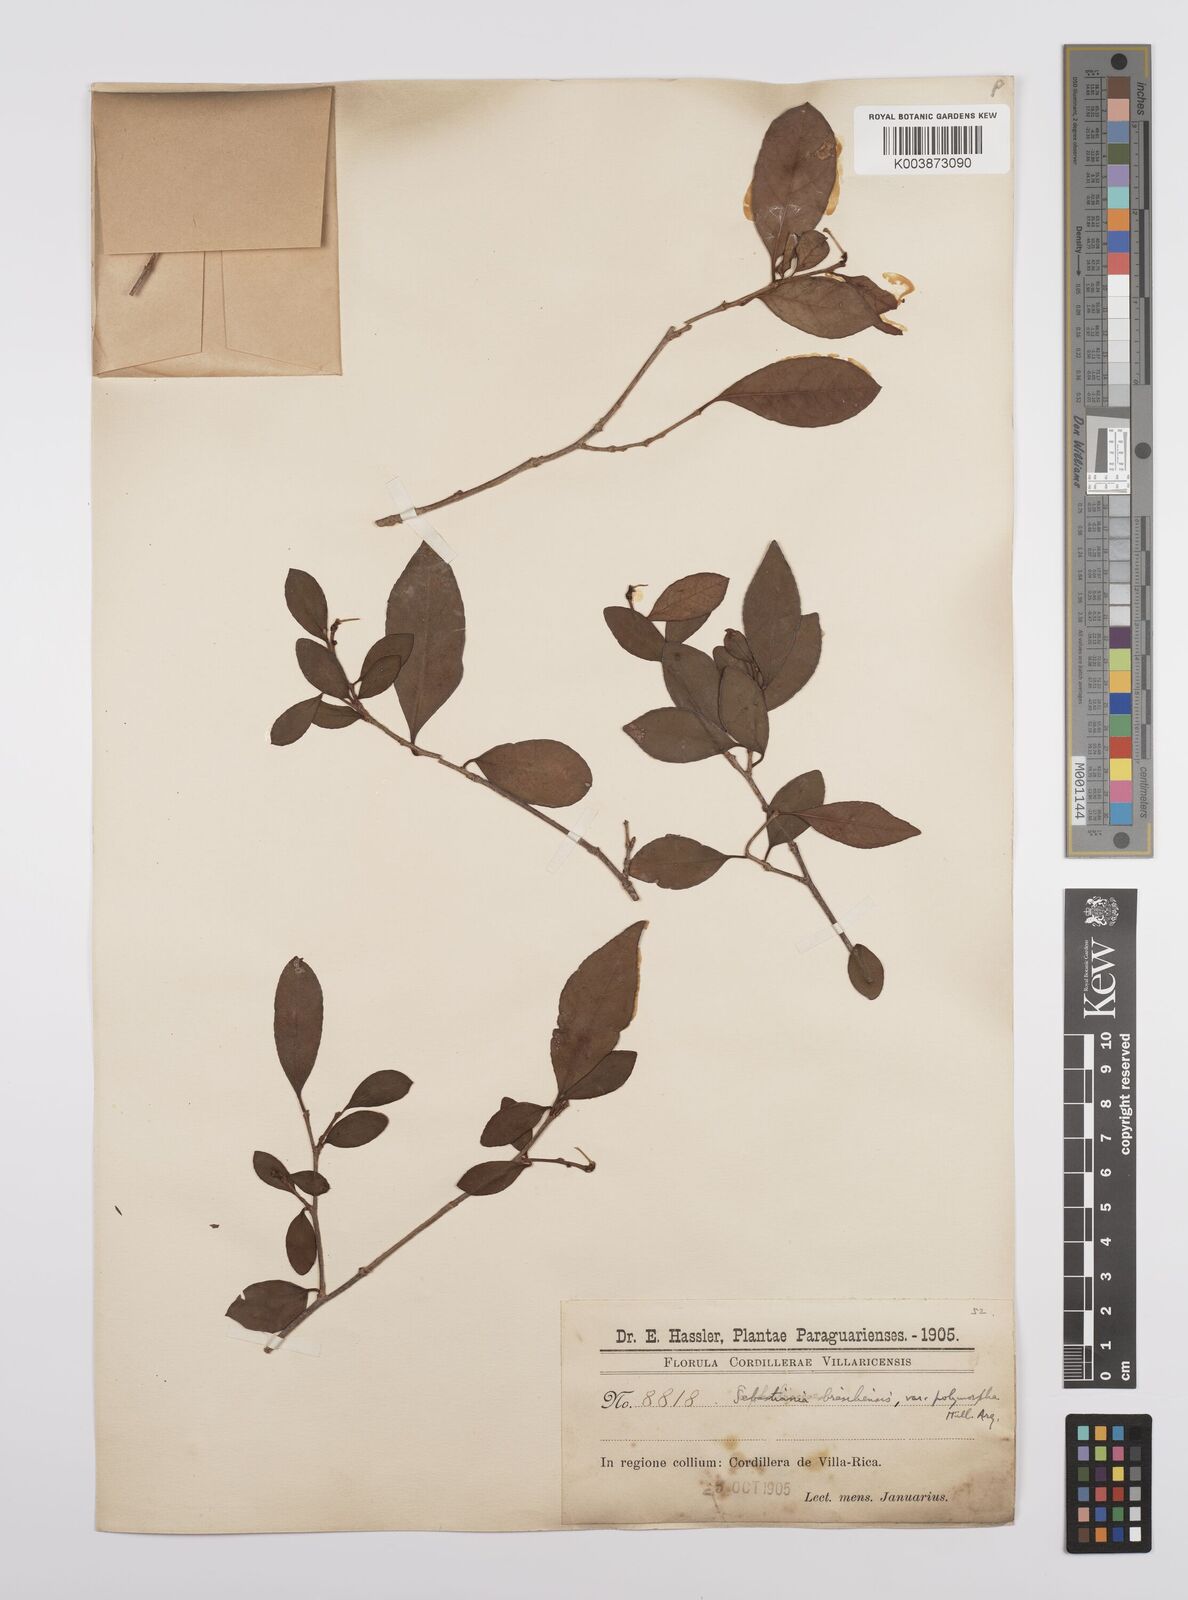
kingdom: Plantae
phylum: Tracheophyta
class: Magnoliopsida
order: Malpighiales
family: Euphorbiaceae
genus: Sebastiania
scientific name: Sebastiania ramosissima
